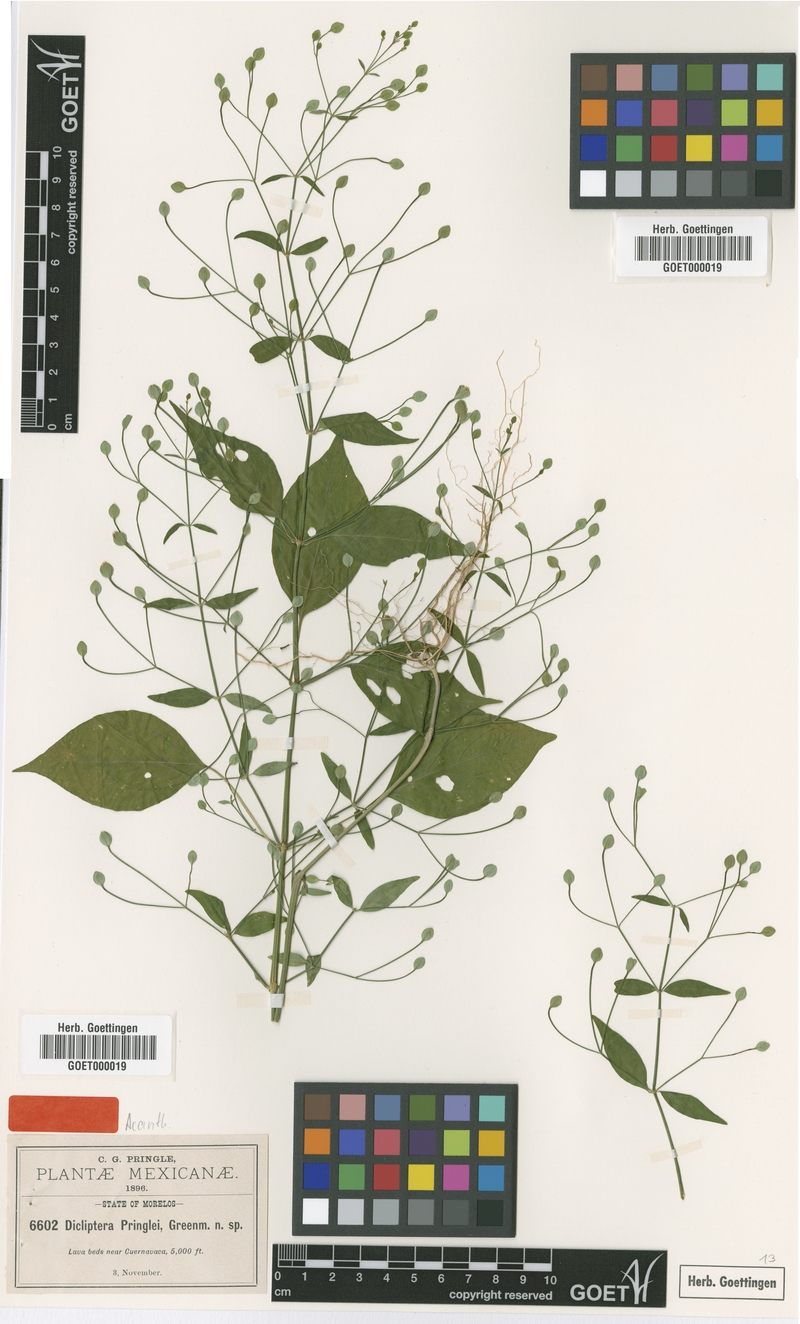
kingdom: Plantae
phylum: Tracheophyta
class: Magnoliopsida
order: Lamiales
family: Acanthaceae
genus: Dicliptera
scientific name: Dicliptera thlaspioides
